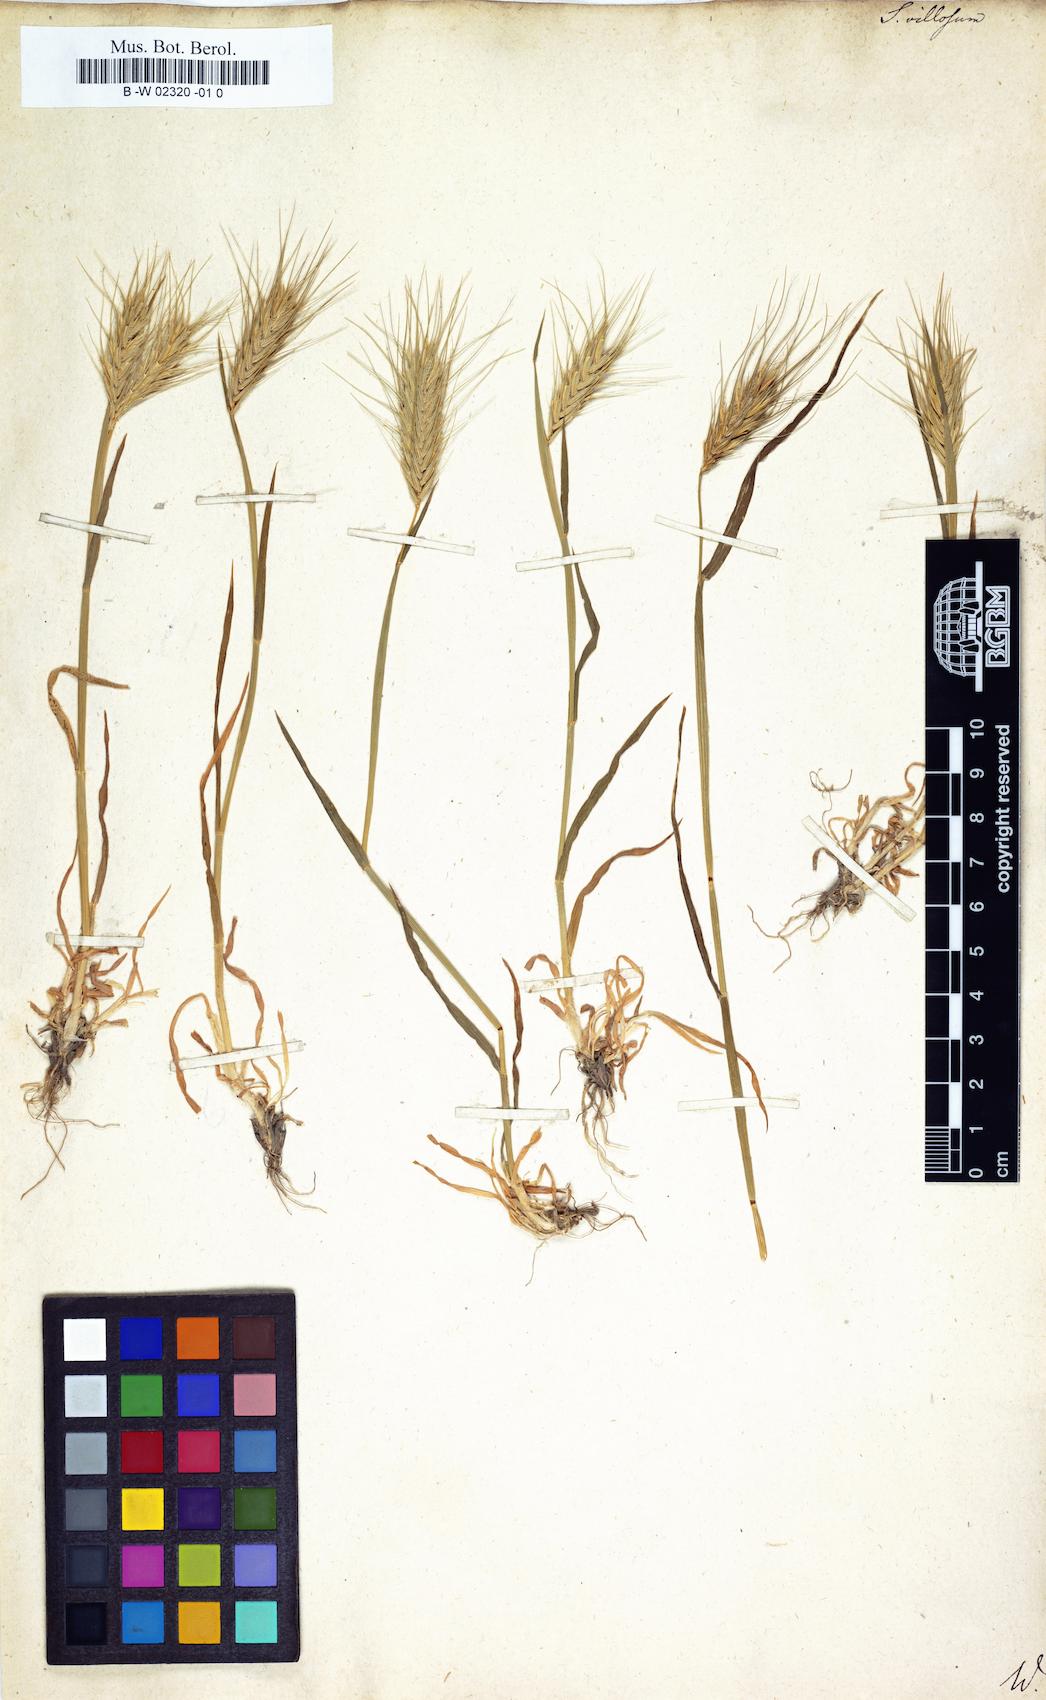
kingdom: Plantae
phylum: Tracheophyta
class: Liliopsida
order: Poales
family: Poaceae
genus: Secale
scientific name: Secale villosum
